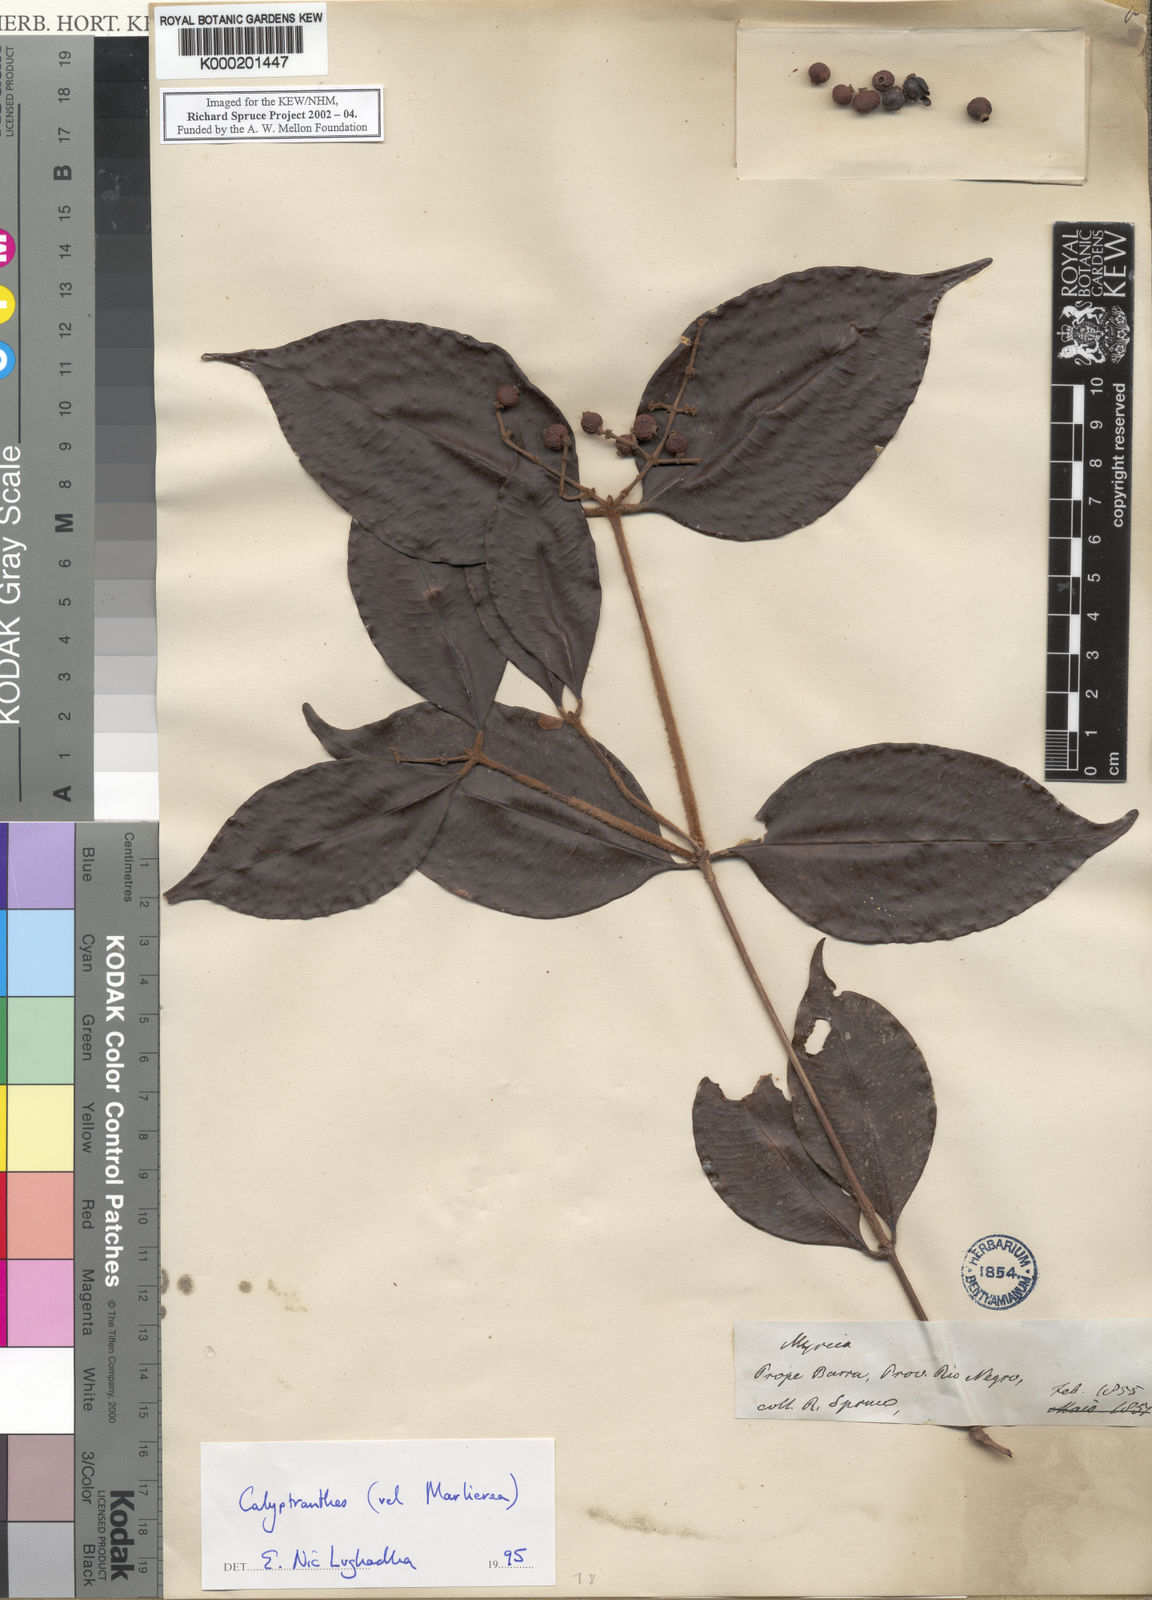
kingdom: Plantae
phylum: Tracheophyta
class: Magnoliopsida
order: Myrtales
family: Myrtaceae
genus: Calyptranthes
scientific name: Calyptranthes
